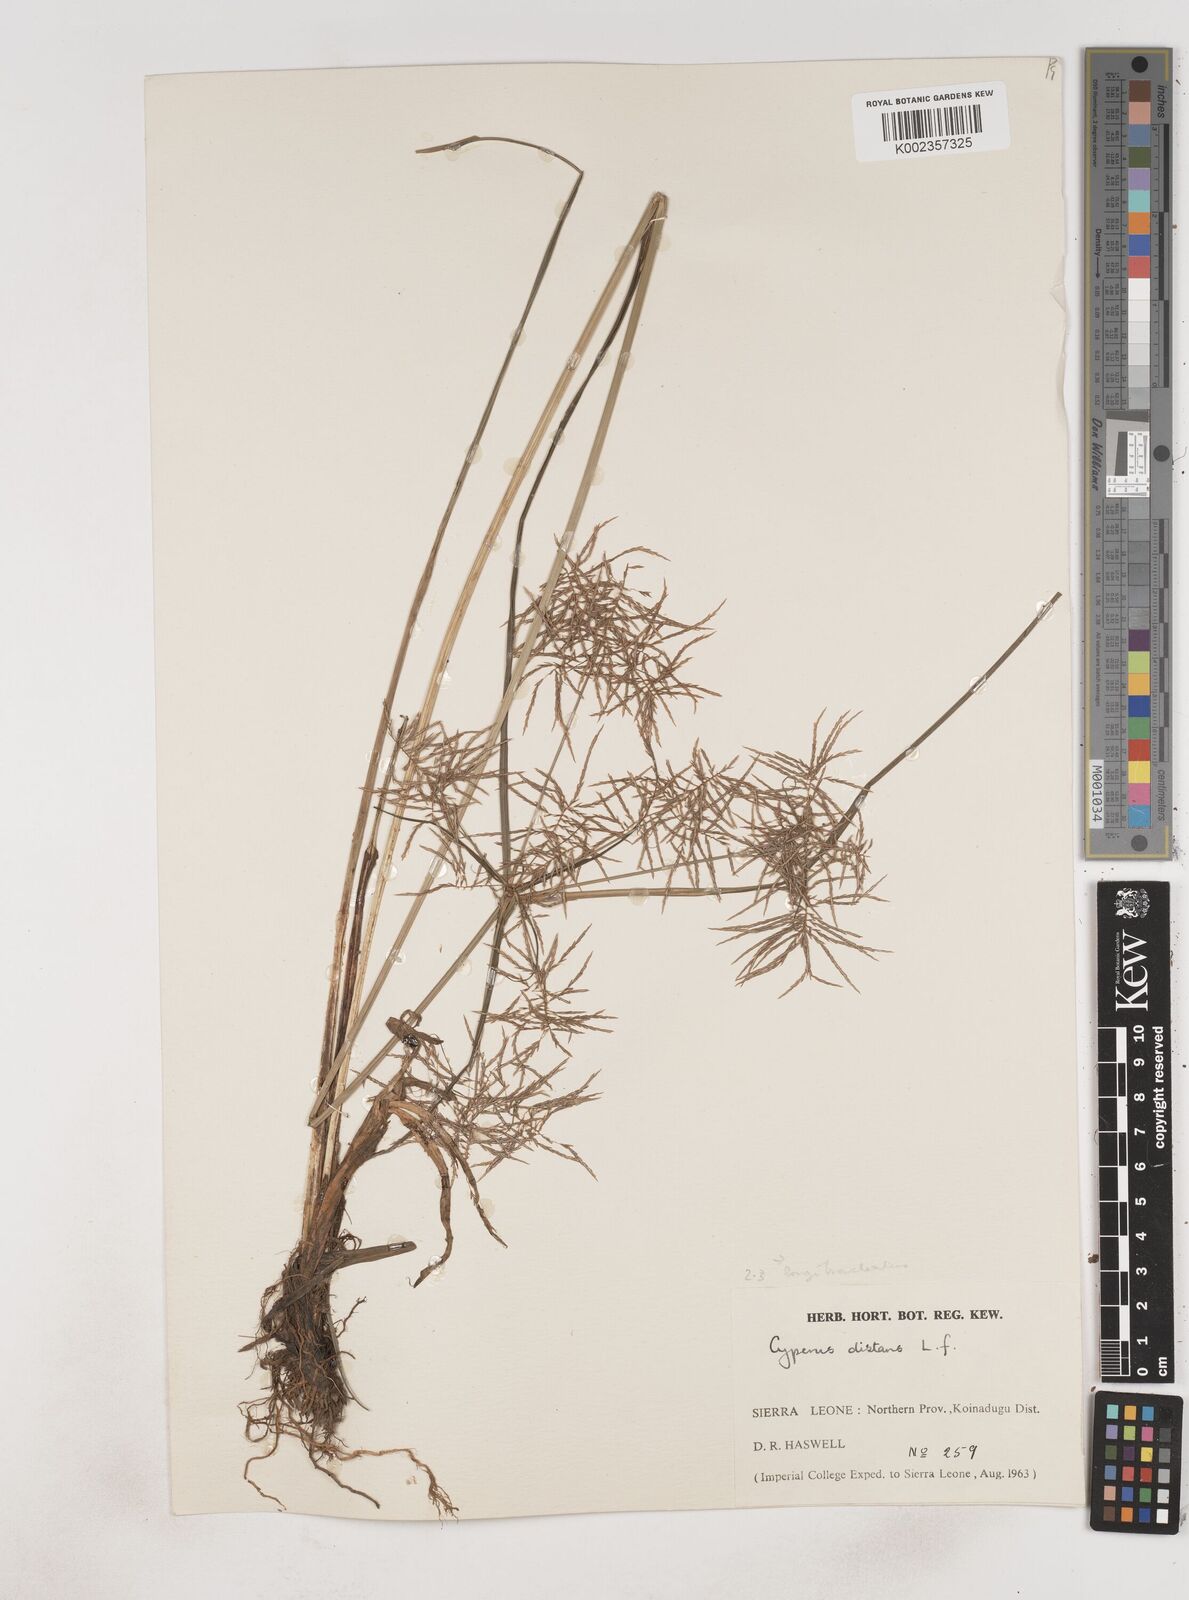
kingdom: Plantae
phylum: Tracheophyta
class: Liliopsida
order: Poales
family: Cyperaceae
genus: Cyperus
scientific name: Cyperus distans
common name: Slender cyperus
